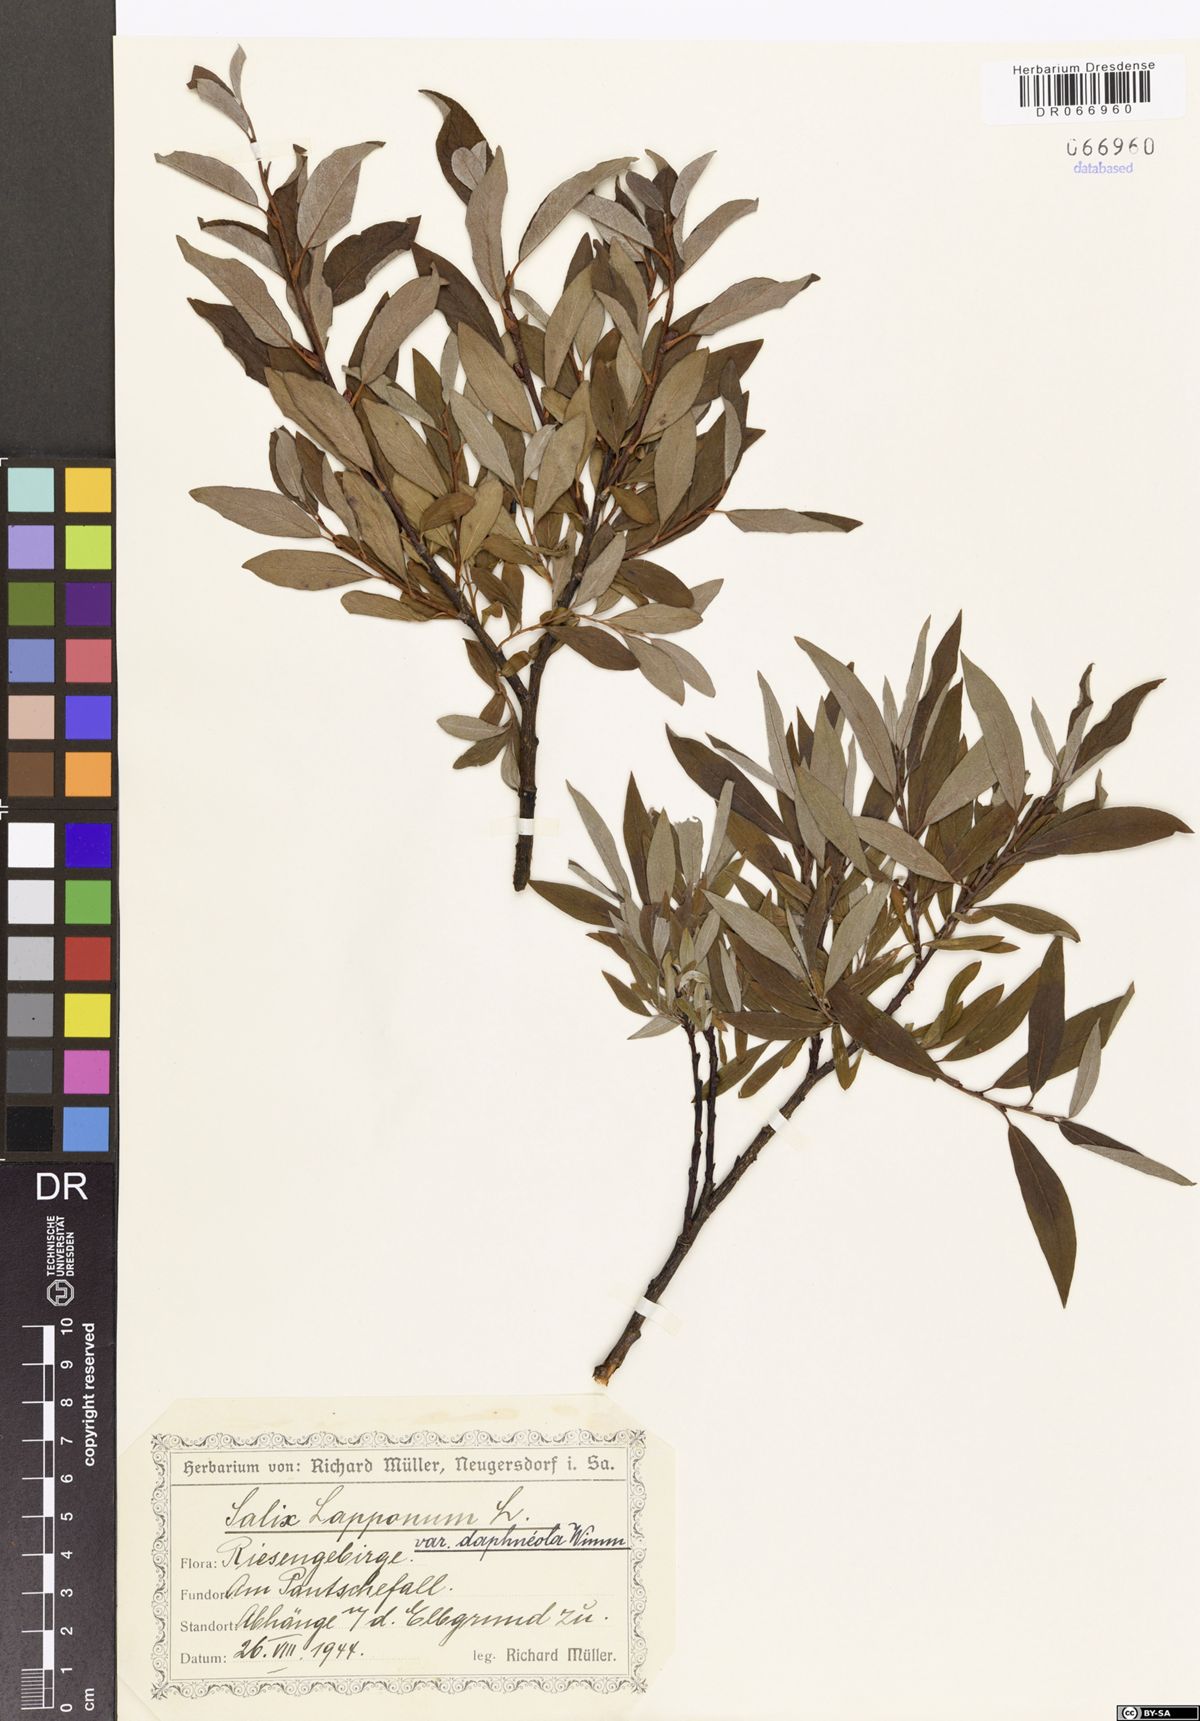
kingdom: Plantae
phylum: Tracheophyta
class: Magnoliopsida
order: Malpighiales
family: Salicaceae
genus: Salix
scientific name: Salix lapponum
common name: Downy willow
